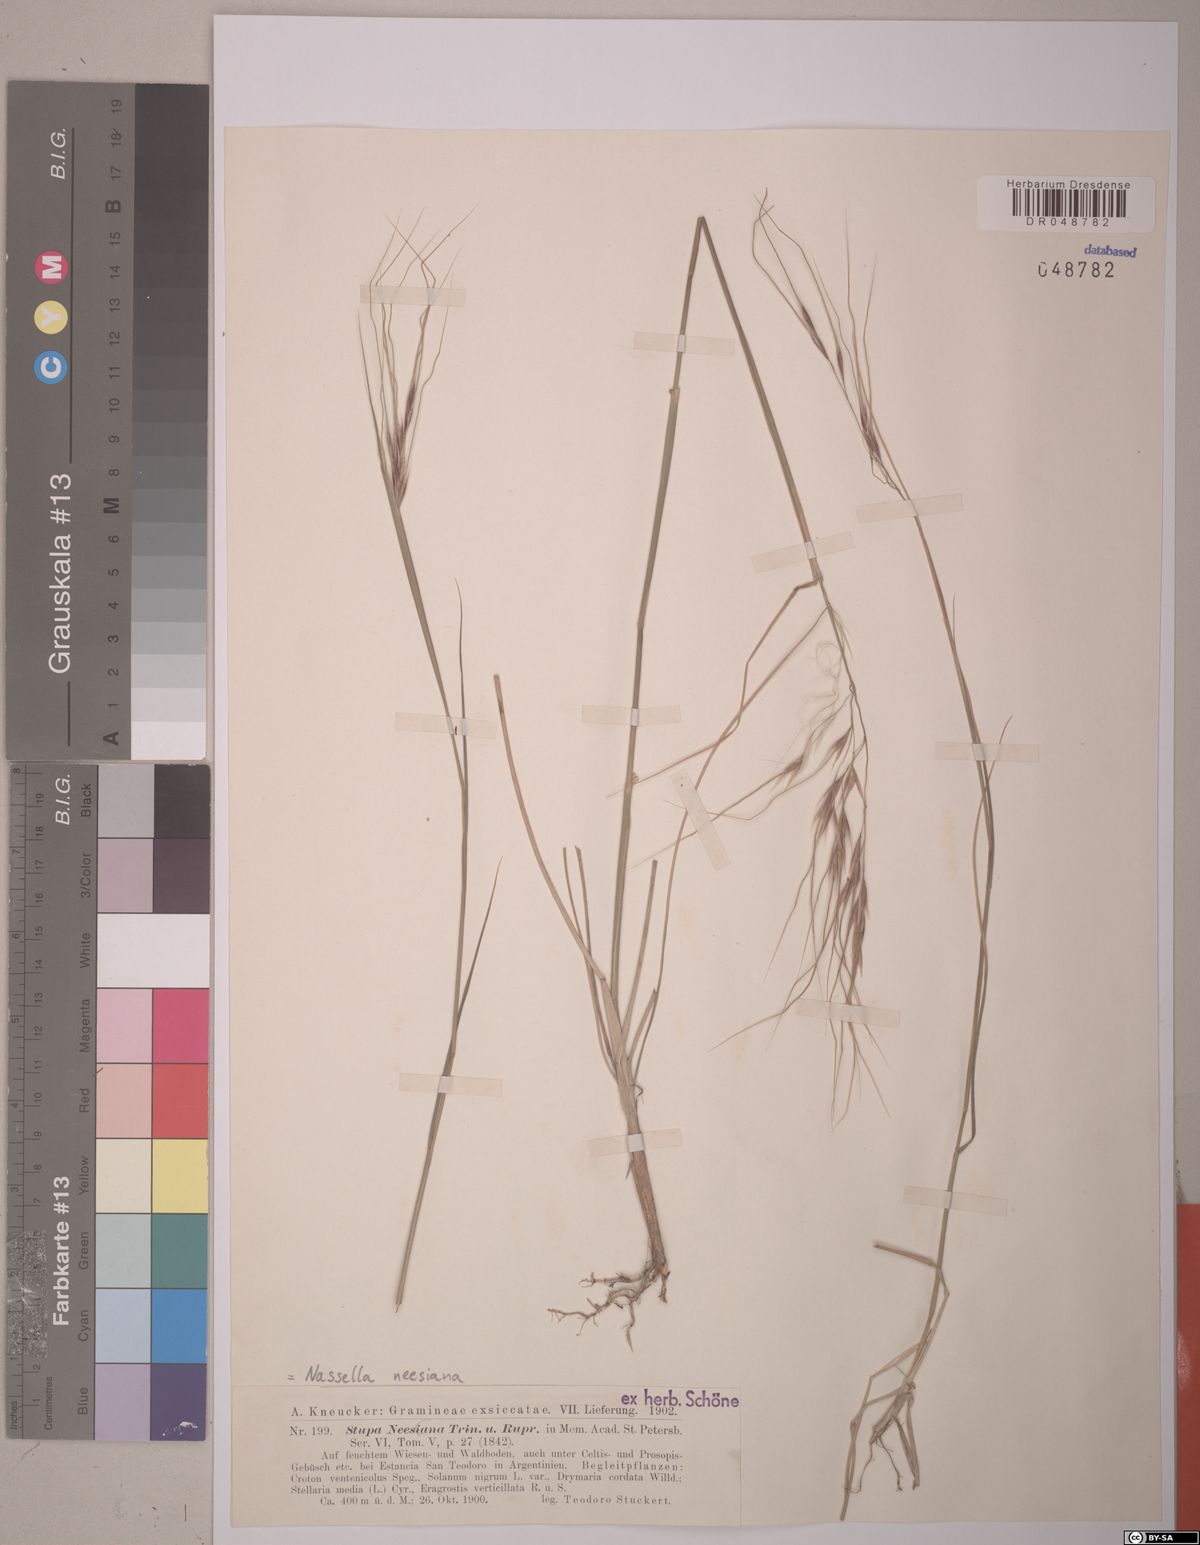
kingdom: Plantae
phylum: Tracheophyta
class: Liliopsida
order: Poales
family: Poaceae
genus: Nassella
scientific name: Nassella neesiana
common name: American needle-grass
